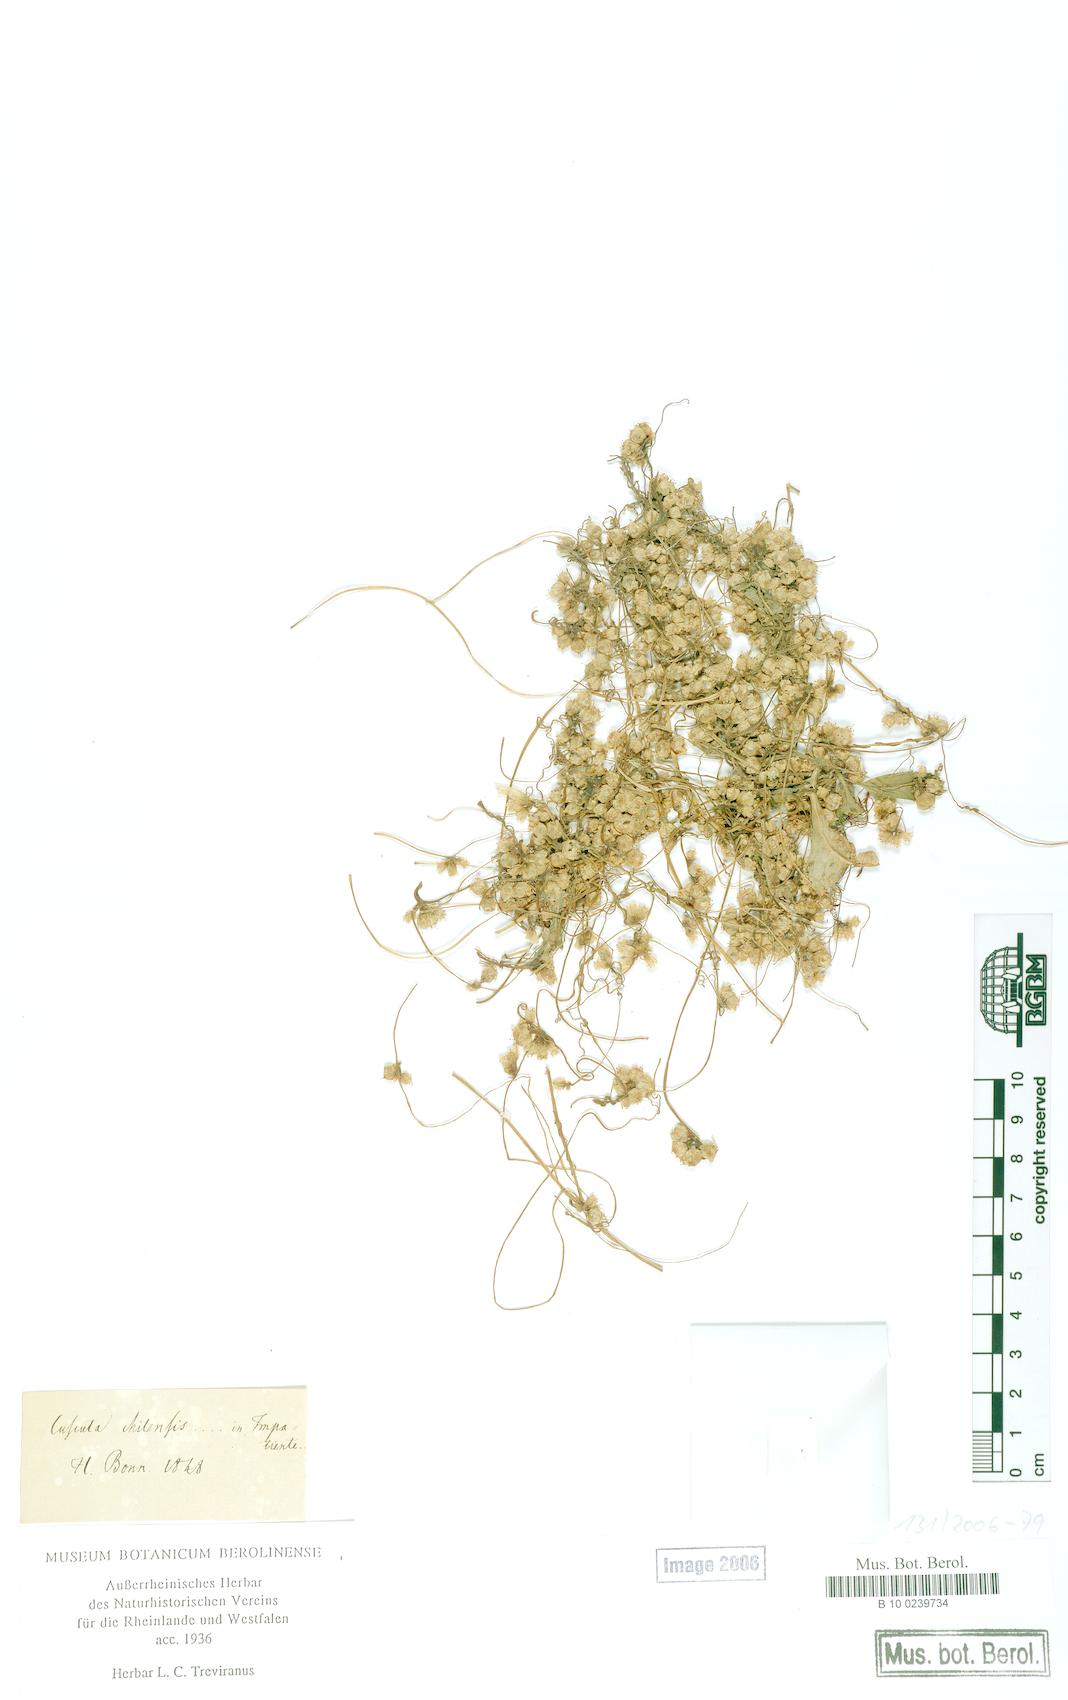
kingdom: Plantae
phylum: Tracheophyta
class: Magnoliopsida
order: Solanales
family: Convolvulaceae
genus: Cuscuta
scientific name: Cuscuta chilensis
